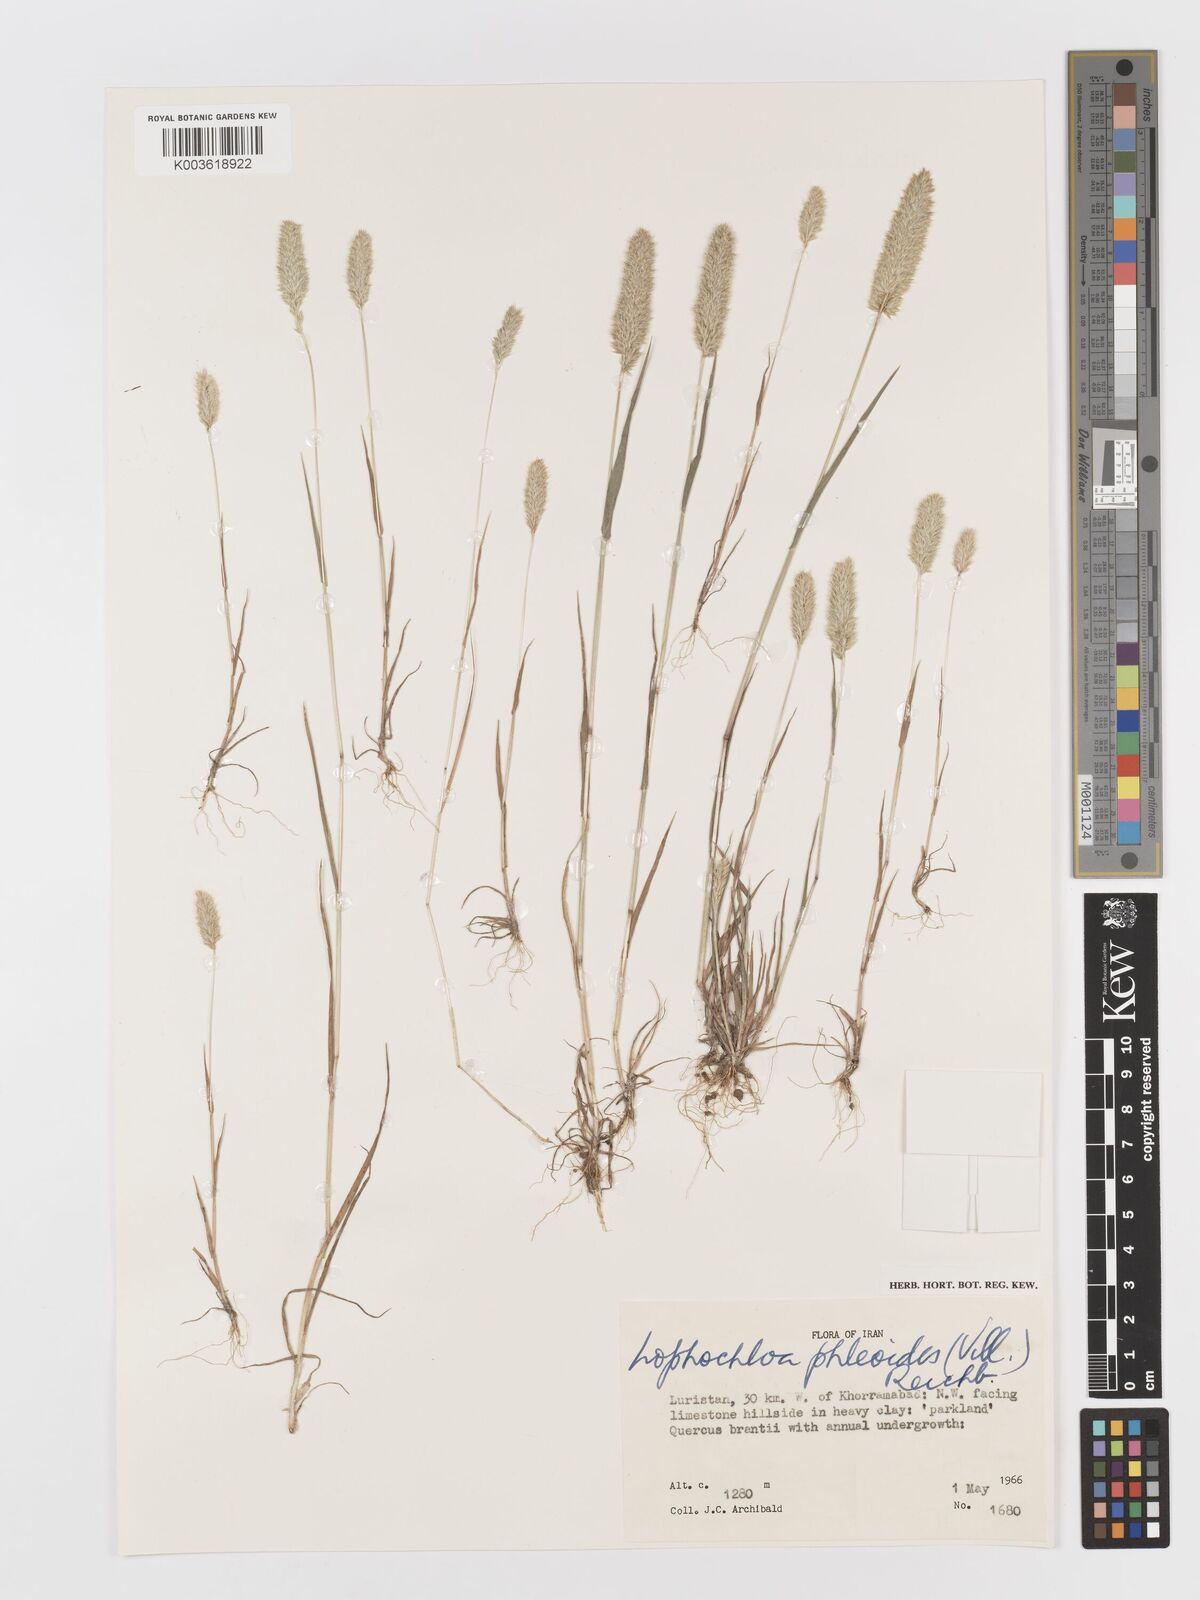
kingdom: Plantae
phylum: Tracheophyta
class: Liliopsida
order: Poales
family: Poaceae
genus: Rostraria
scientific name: Rostraria cristata
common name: Mediterranean hair-grass
